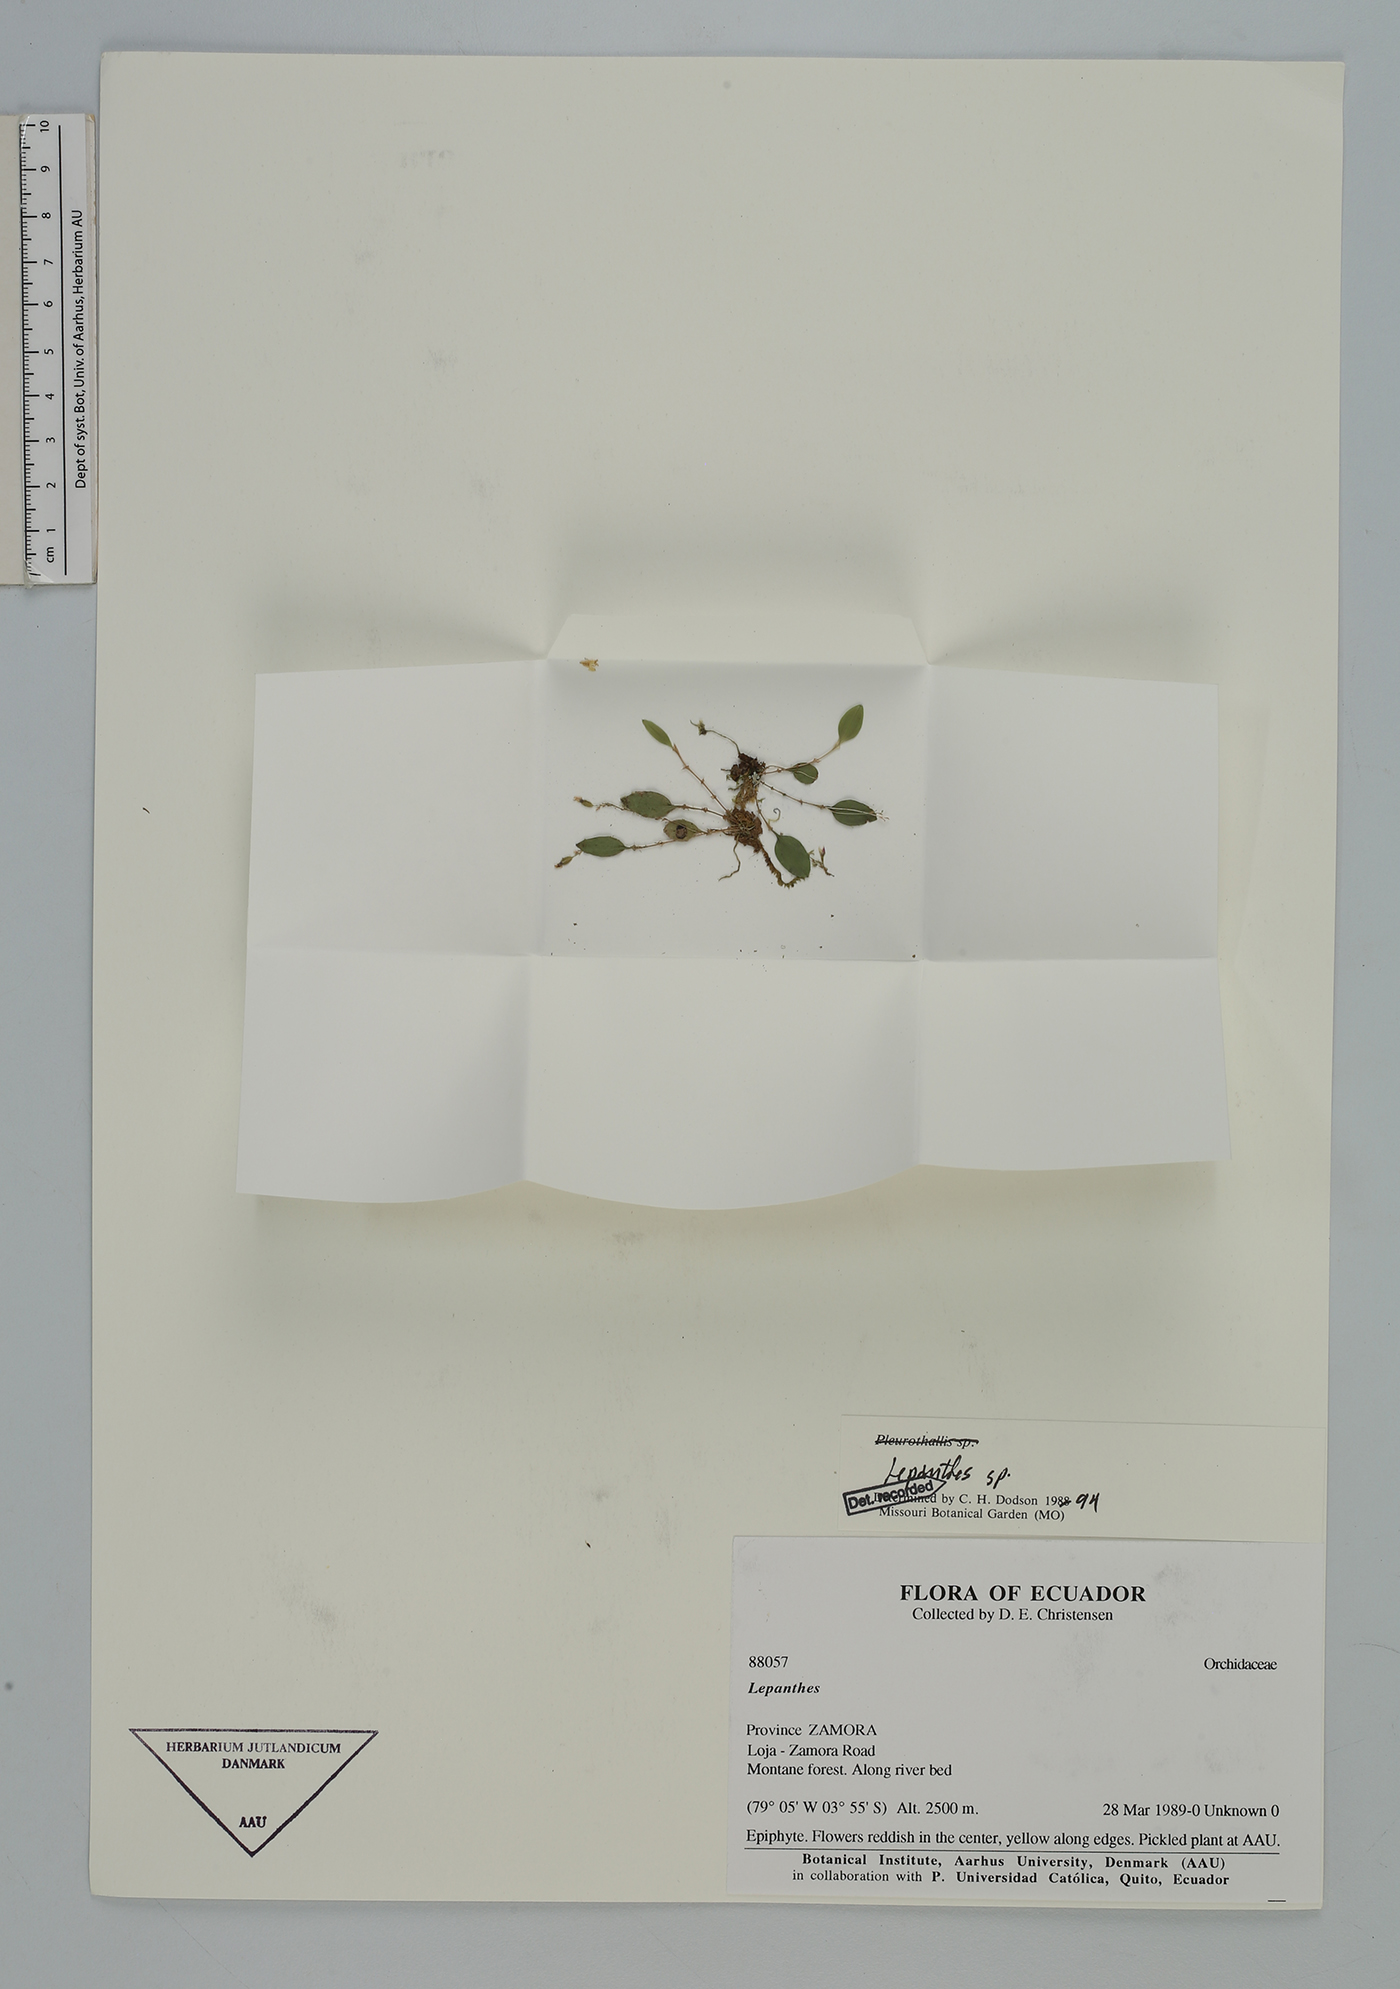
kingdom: Plantae
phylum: Tracheophyta
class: Liliopsida
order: Asparagales
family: Orchidaceae
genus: Lepanthes
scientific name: Lepanthes
